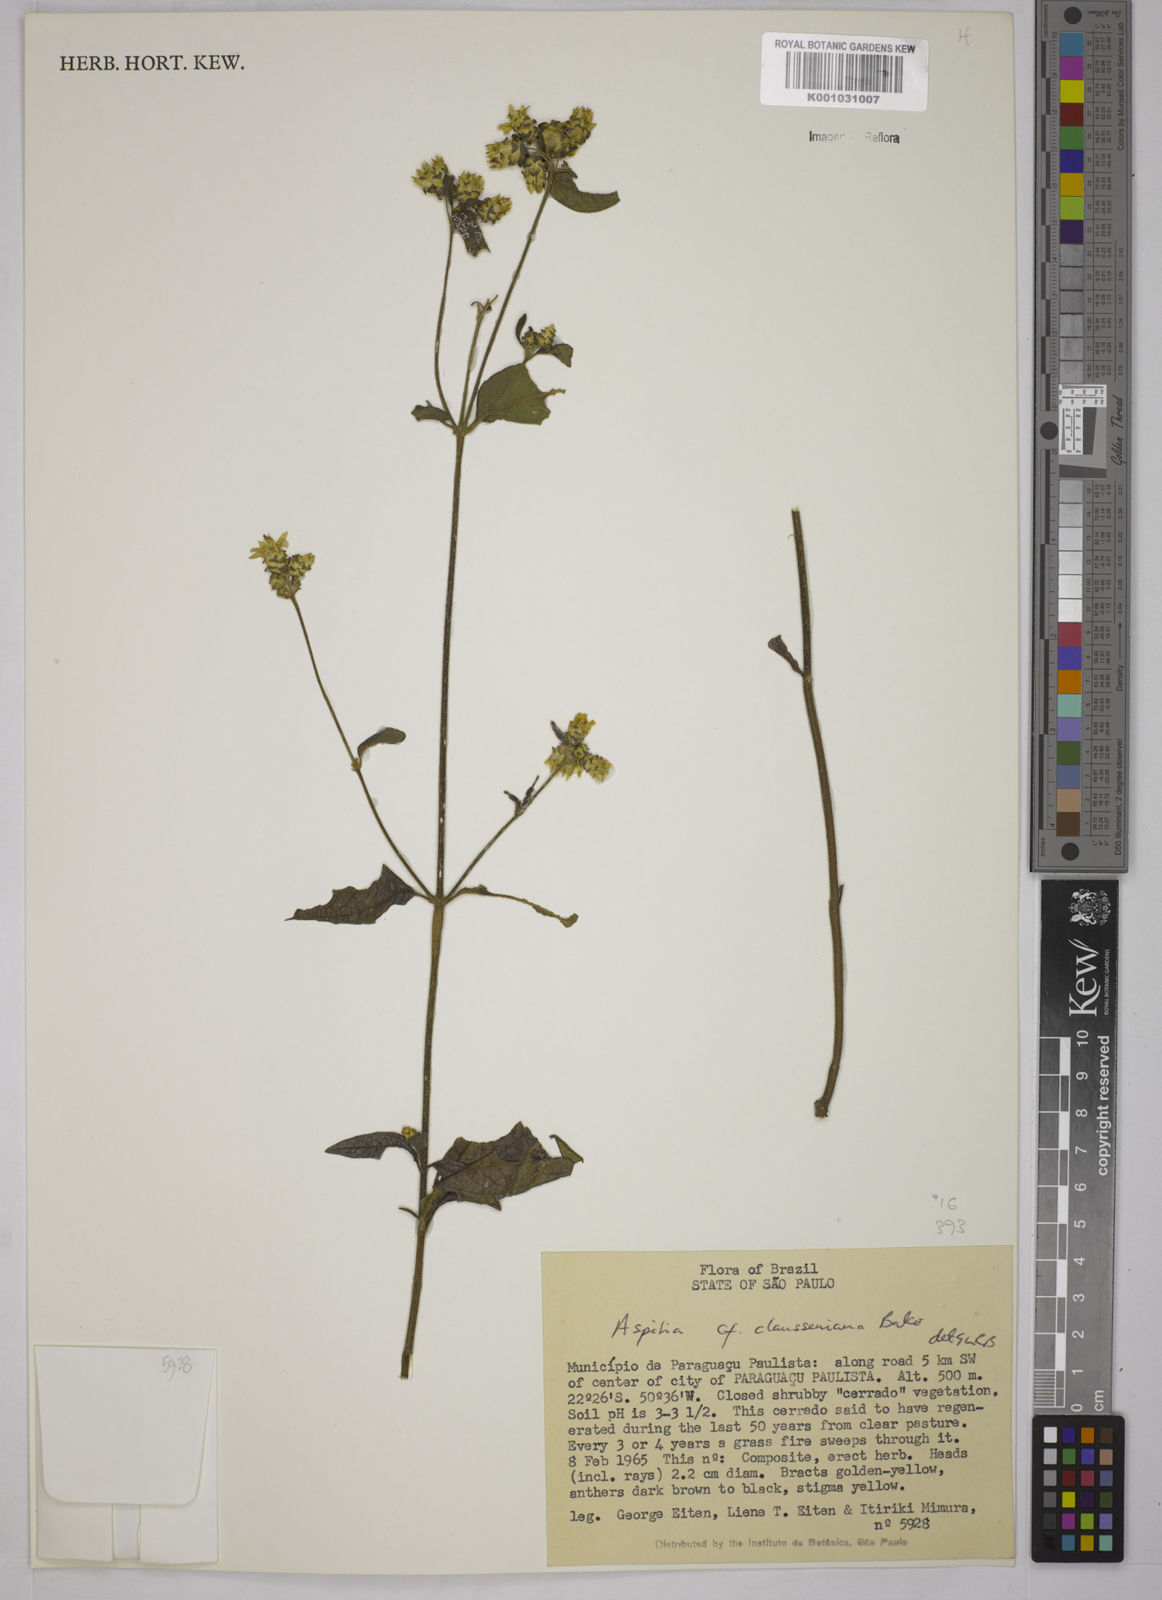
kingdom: Plantae
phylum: Tracheophyta
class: Magnoliopsida
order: Asterales
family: Asteraceae
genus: Aspilia
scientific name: Aspilia clausseniana
